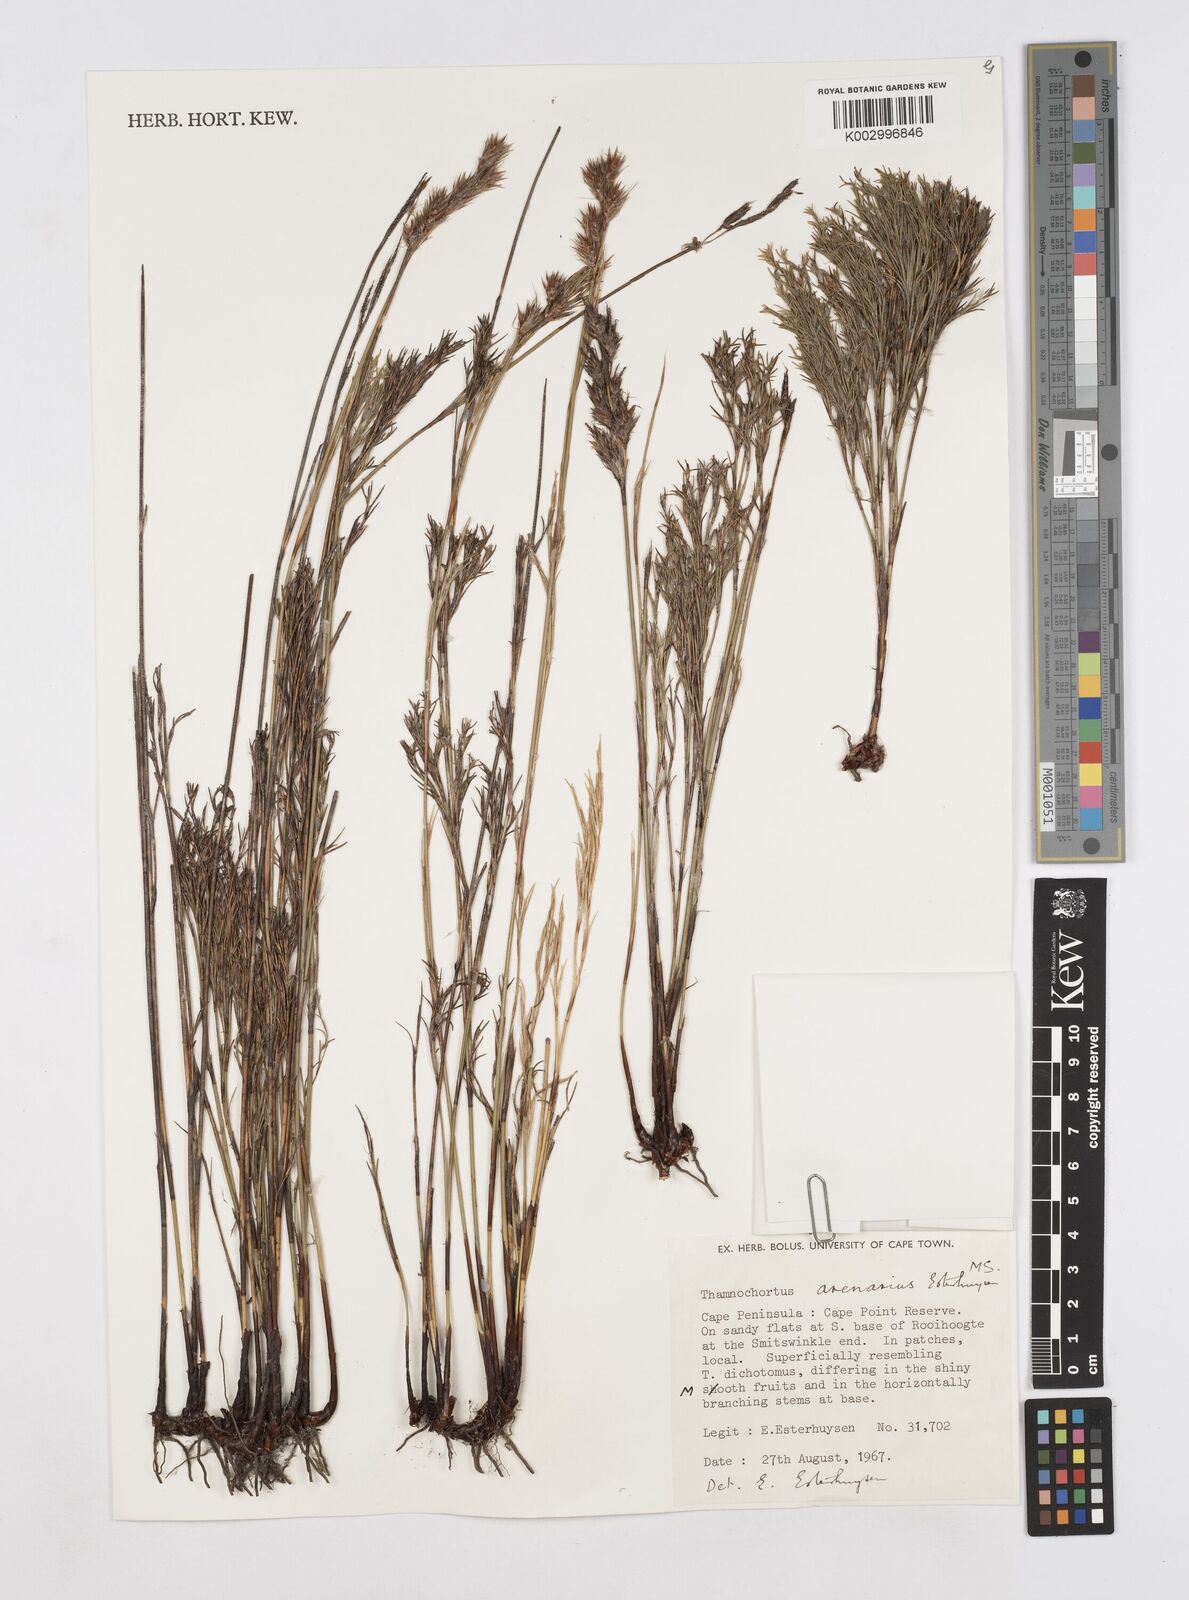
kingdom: Plantae
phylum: Tracheophyta
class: Liliopsida
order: Poales
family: Restionaceae
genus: Thamnochortus
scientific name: Thamnochortus arenarius
